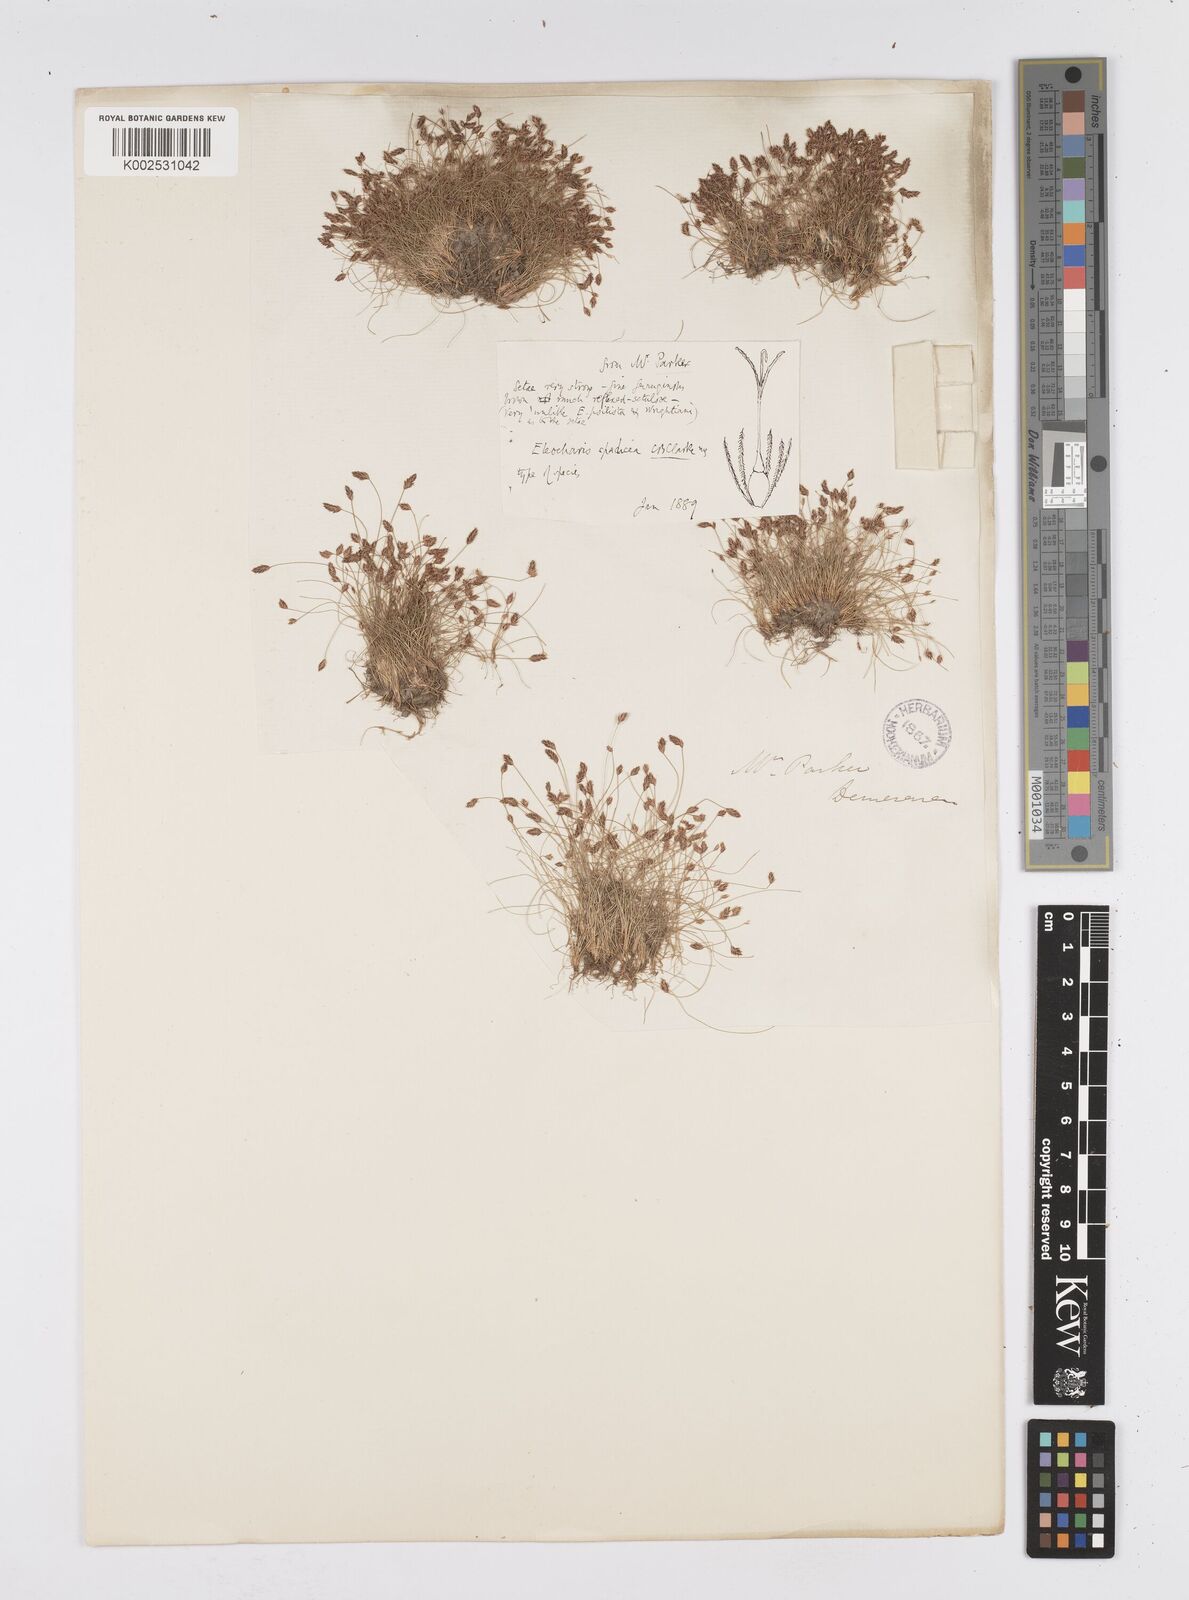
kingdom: Plantae
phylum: Tracheophyta
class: Liliopsida
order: Poales
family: Cyperaceae
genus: Eleocharis
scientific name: Eleocharis subfoliata
